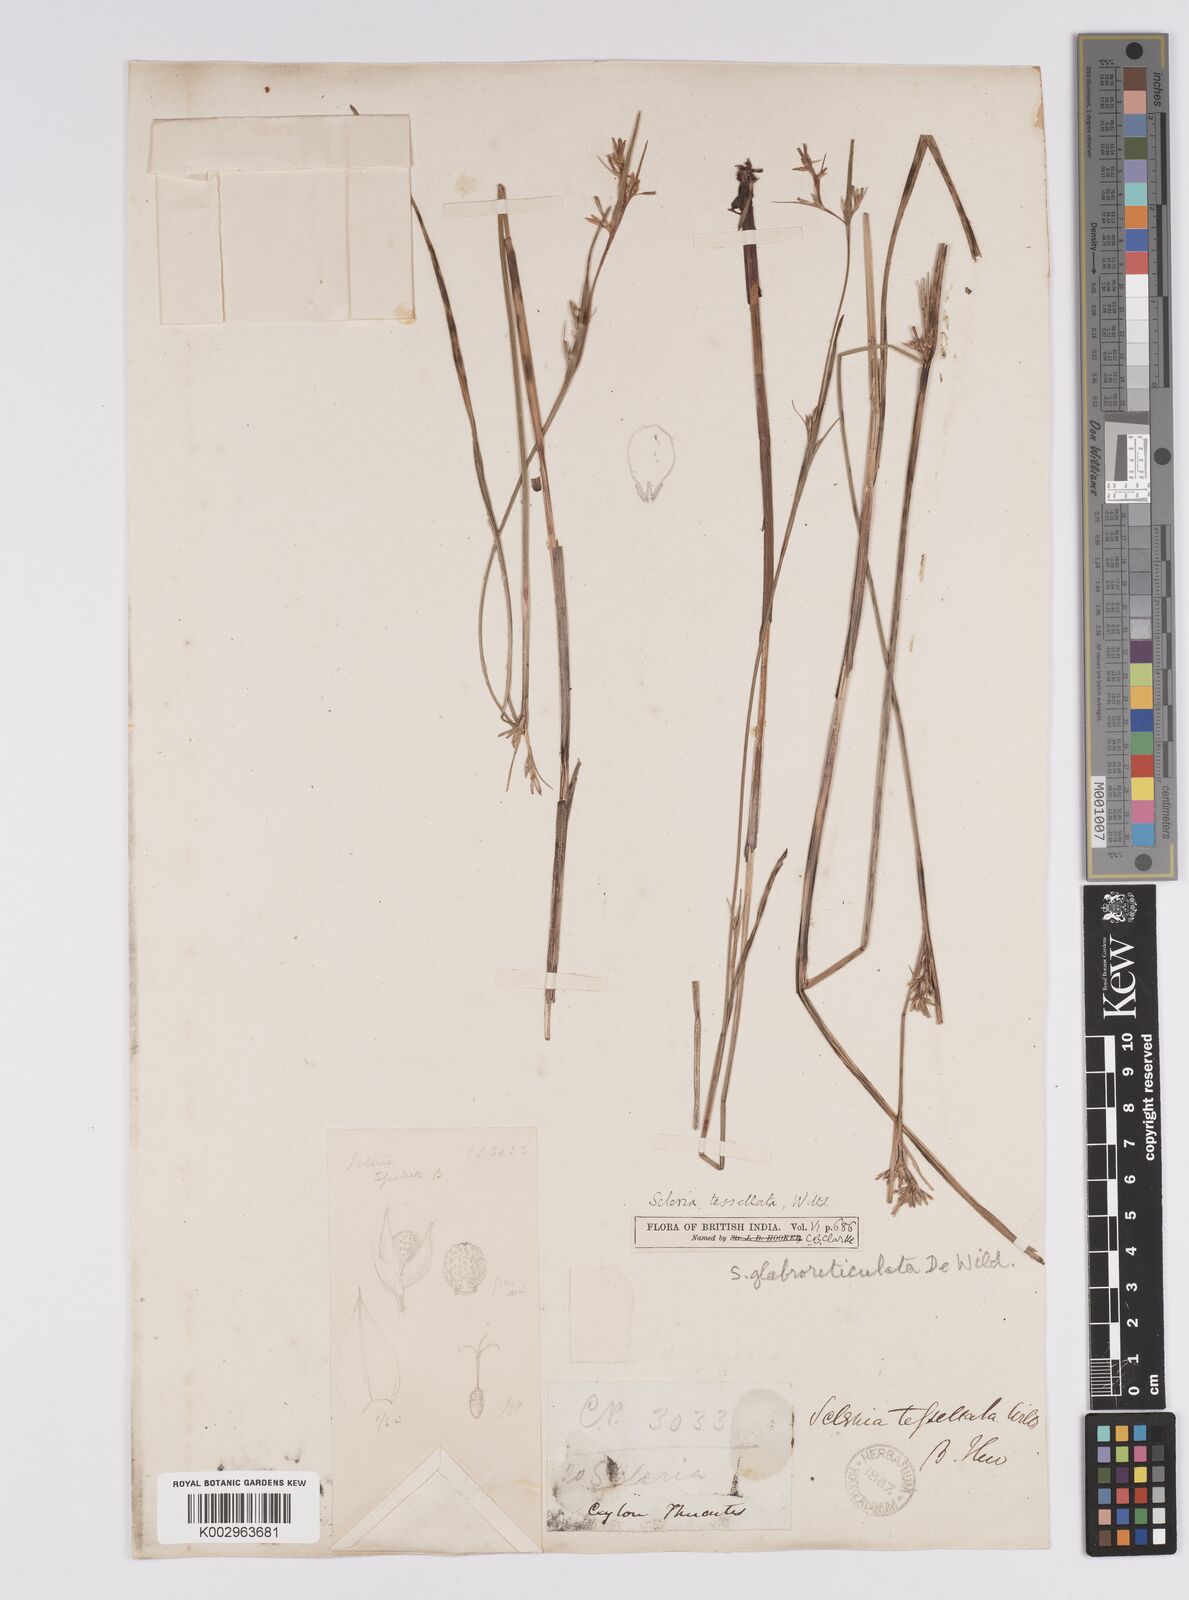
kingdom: Plantae
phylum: Tracheophyta
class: Liliopsida
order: Poales
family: Cyperaceae
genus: Scleria
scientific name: Scleria mikawana
